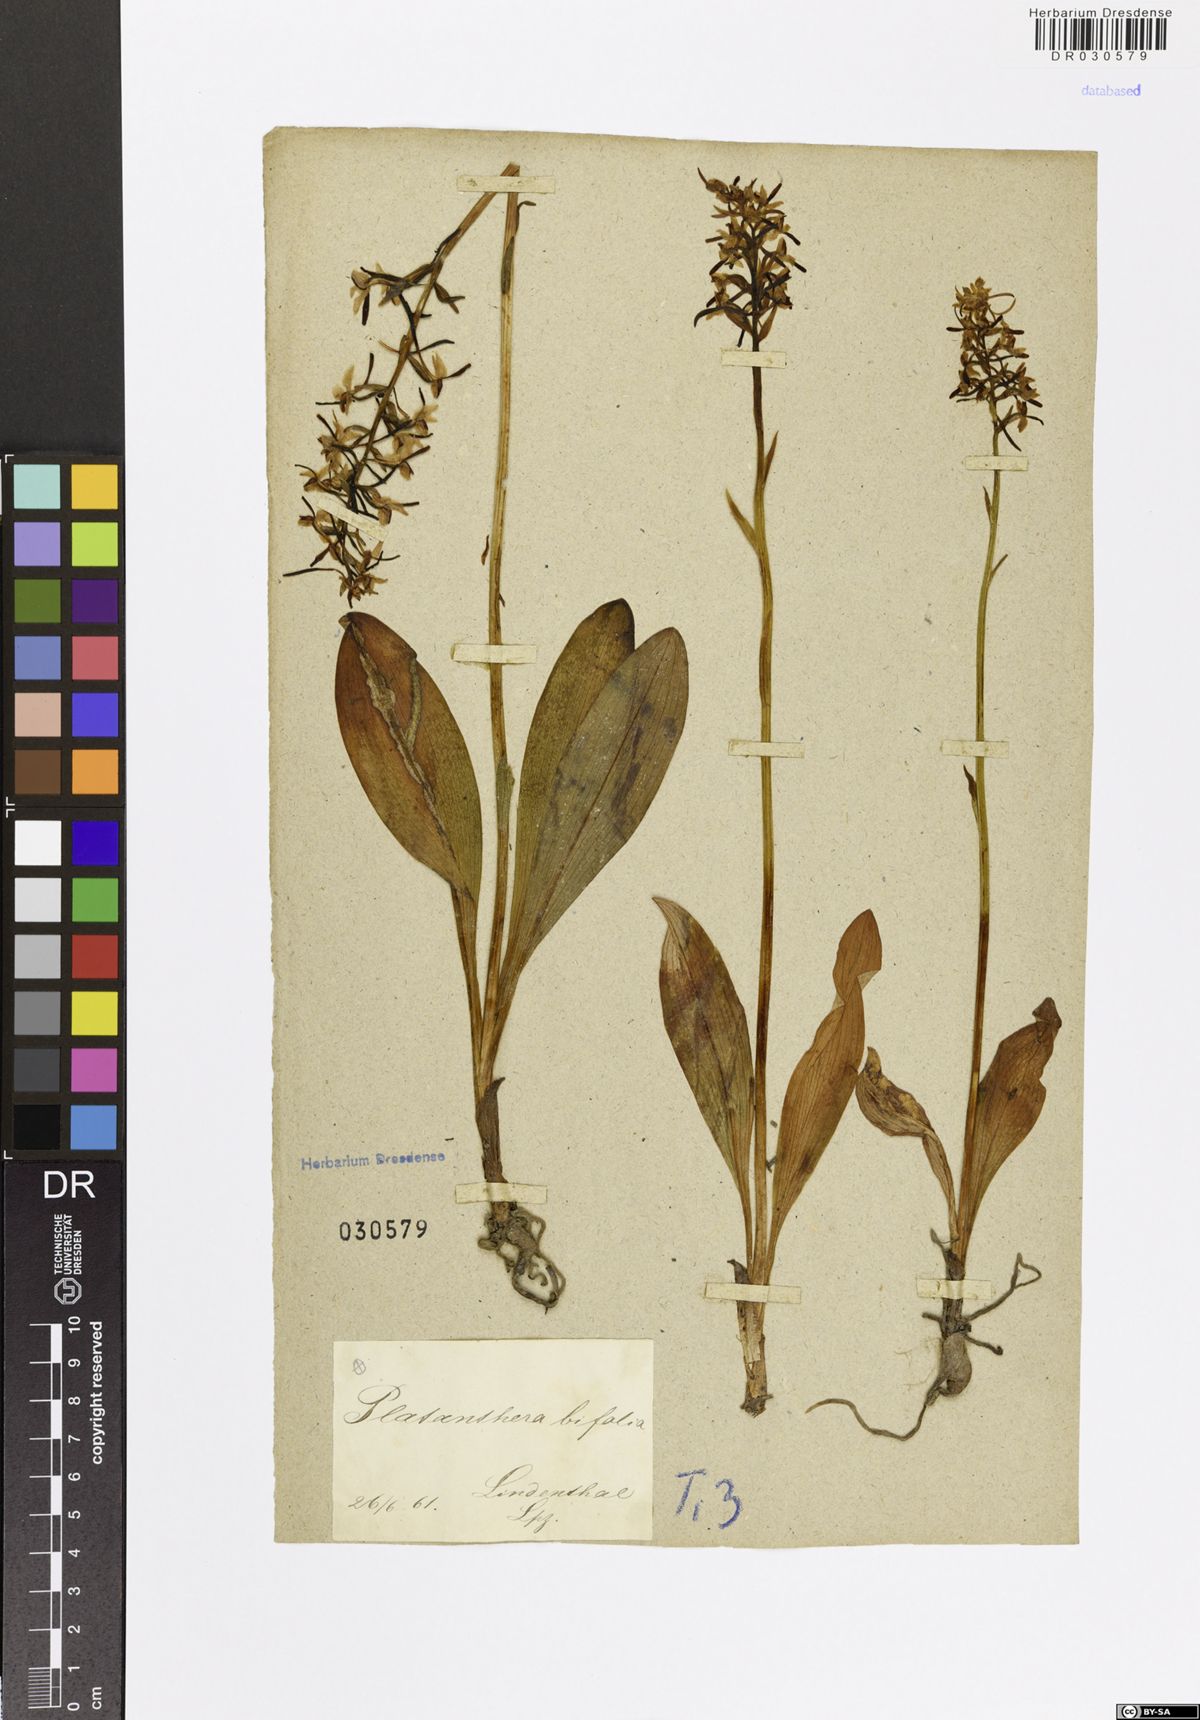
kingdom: Plantae
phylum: Tracheophyta
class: Liliopsida
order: Asparagales
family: Orchidaceae
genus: Platanthera
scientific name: Platanthera bifolia
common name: Lesser butterfly-orchid
